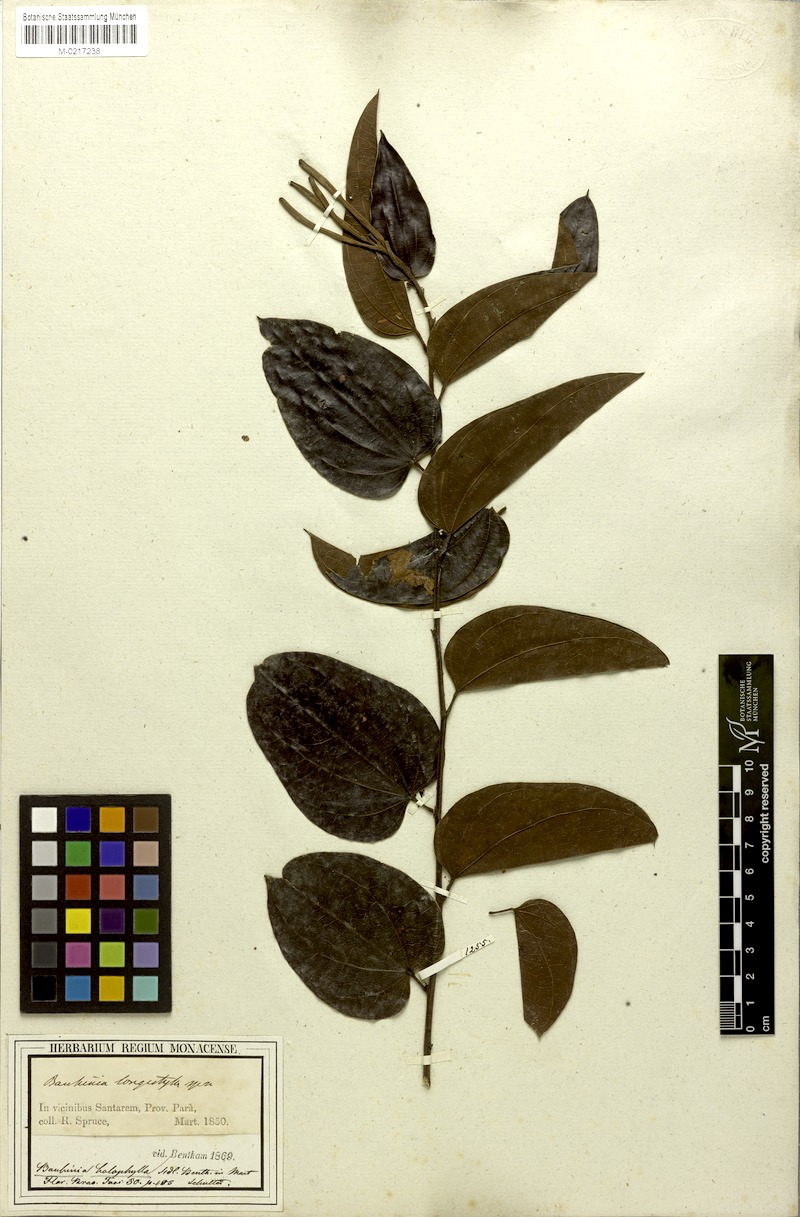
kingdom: Plantae
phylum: Tracheophyta
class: Magnoliopsida
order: Fabales
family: Fabaceae
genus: Bauhinia
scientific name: Bauhinia holophylla
